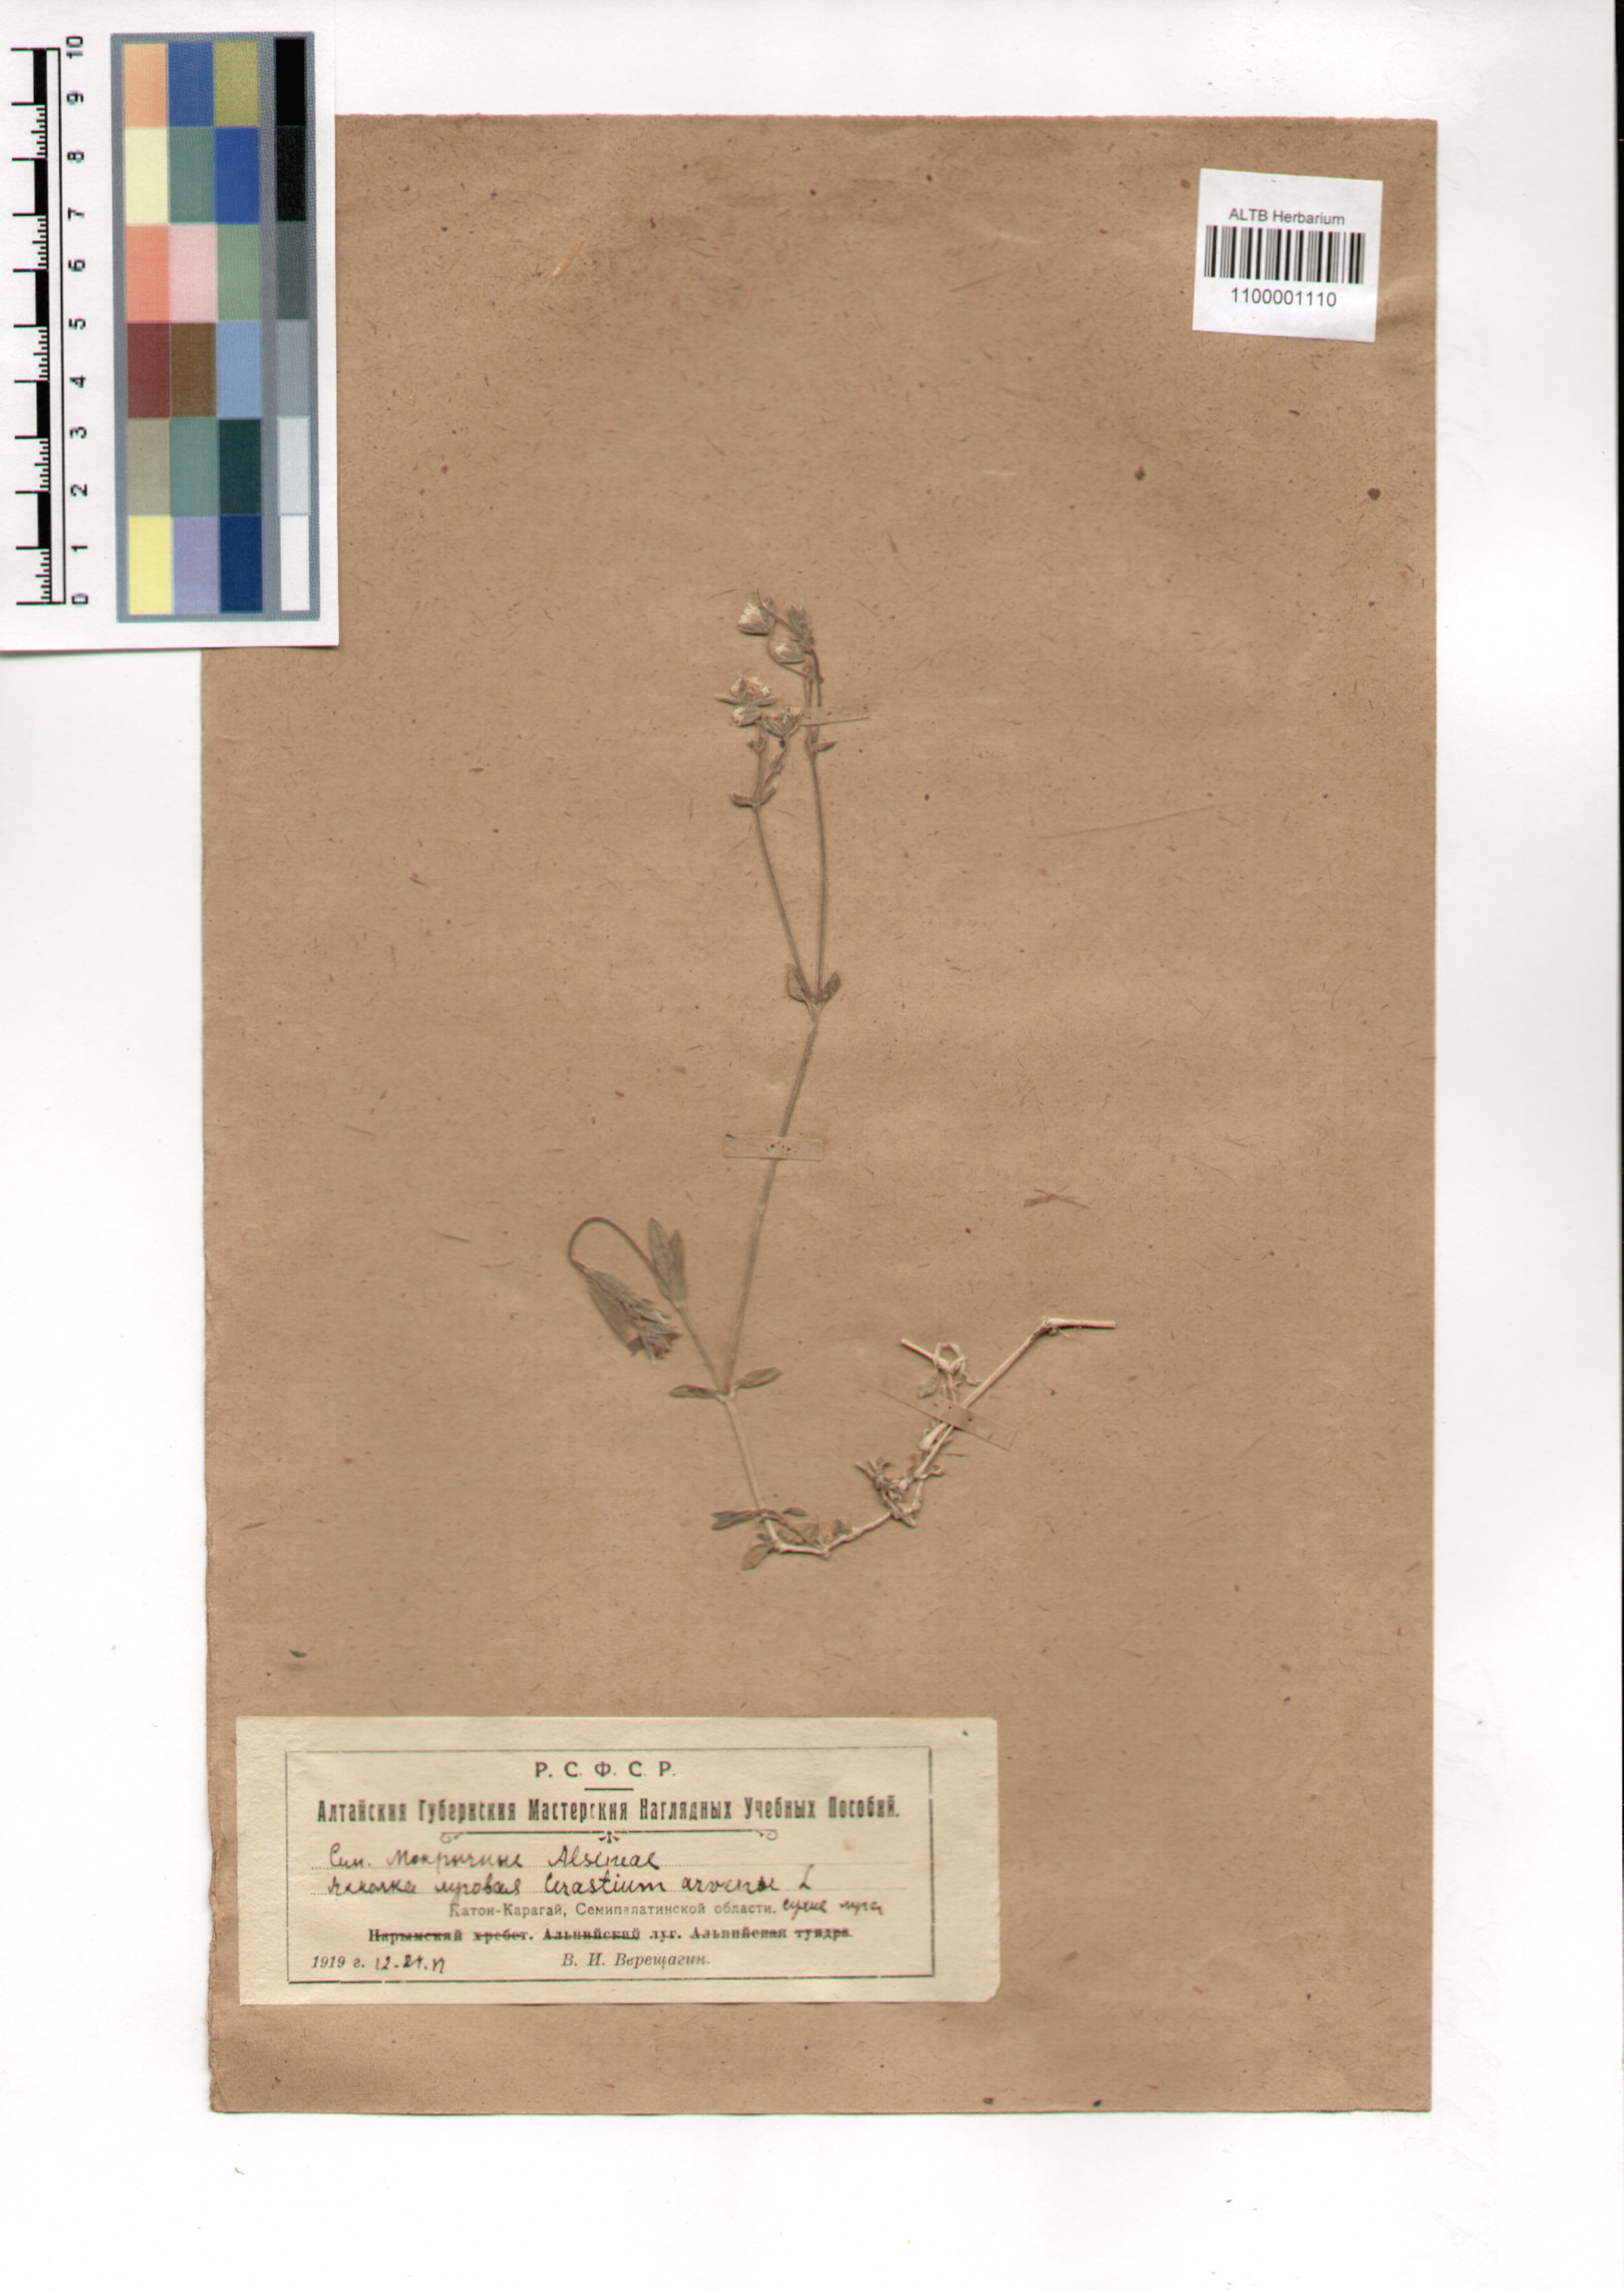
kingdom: Plantae
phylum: Tracheophyta
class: Magnoliopsida
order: Caryophyllales
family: Caryophyllaceae
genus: Cerastium
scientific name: Cerastium arvense
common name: Field mouse-ear
